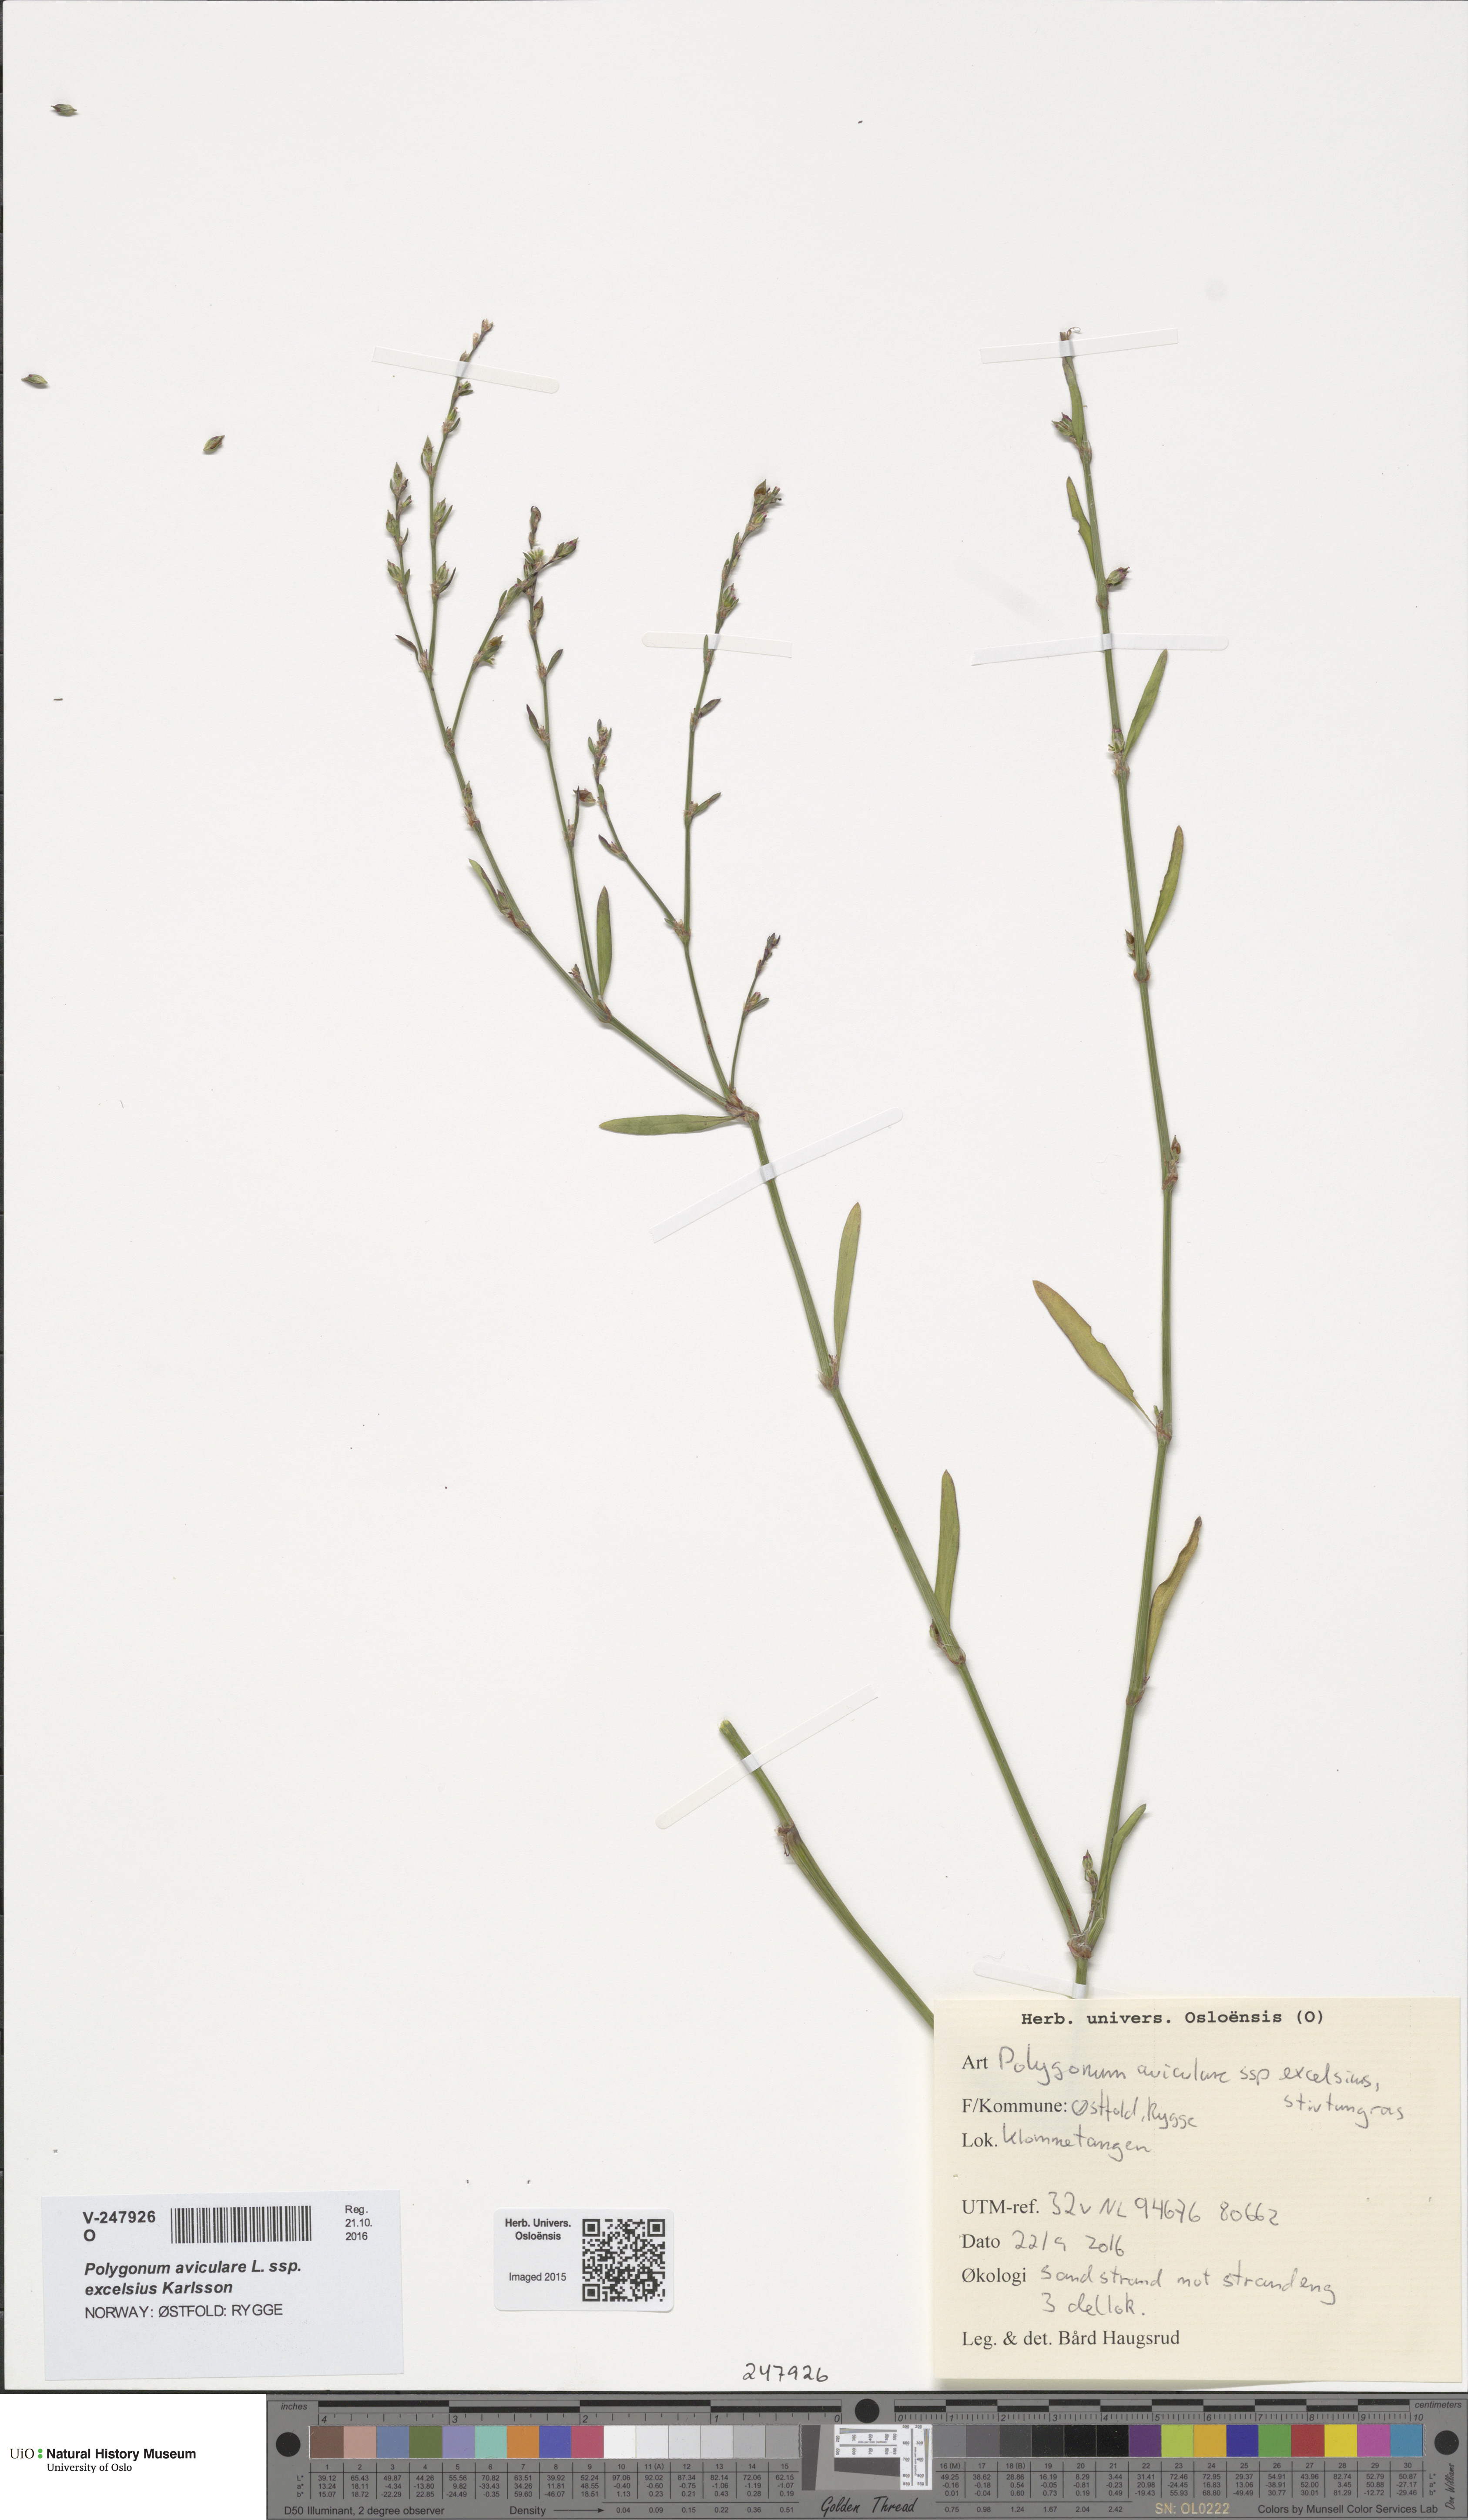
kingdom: Plantae
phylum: Tracheophyta
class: Magnoliopsida
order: Caryophyllales
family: Polygonaceae
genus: Polygonum
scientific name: Polygonum excelsius
